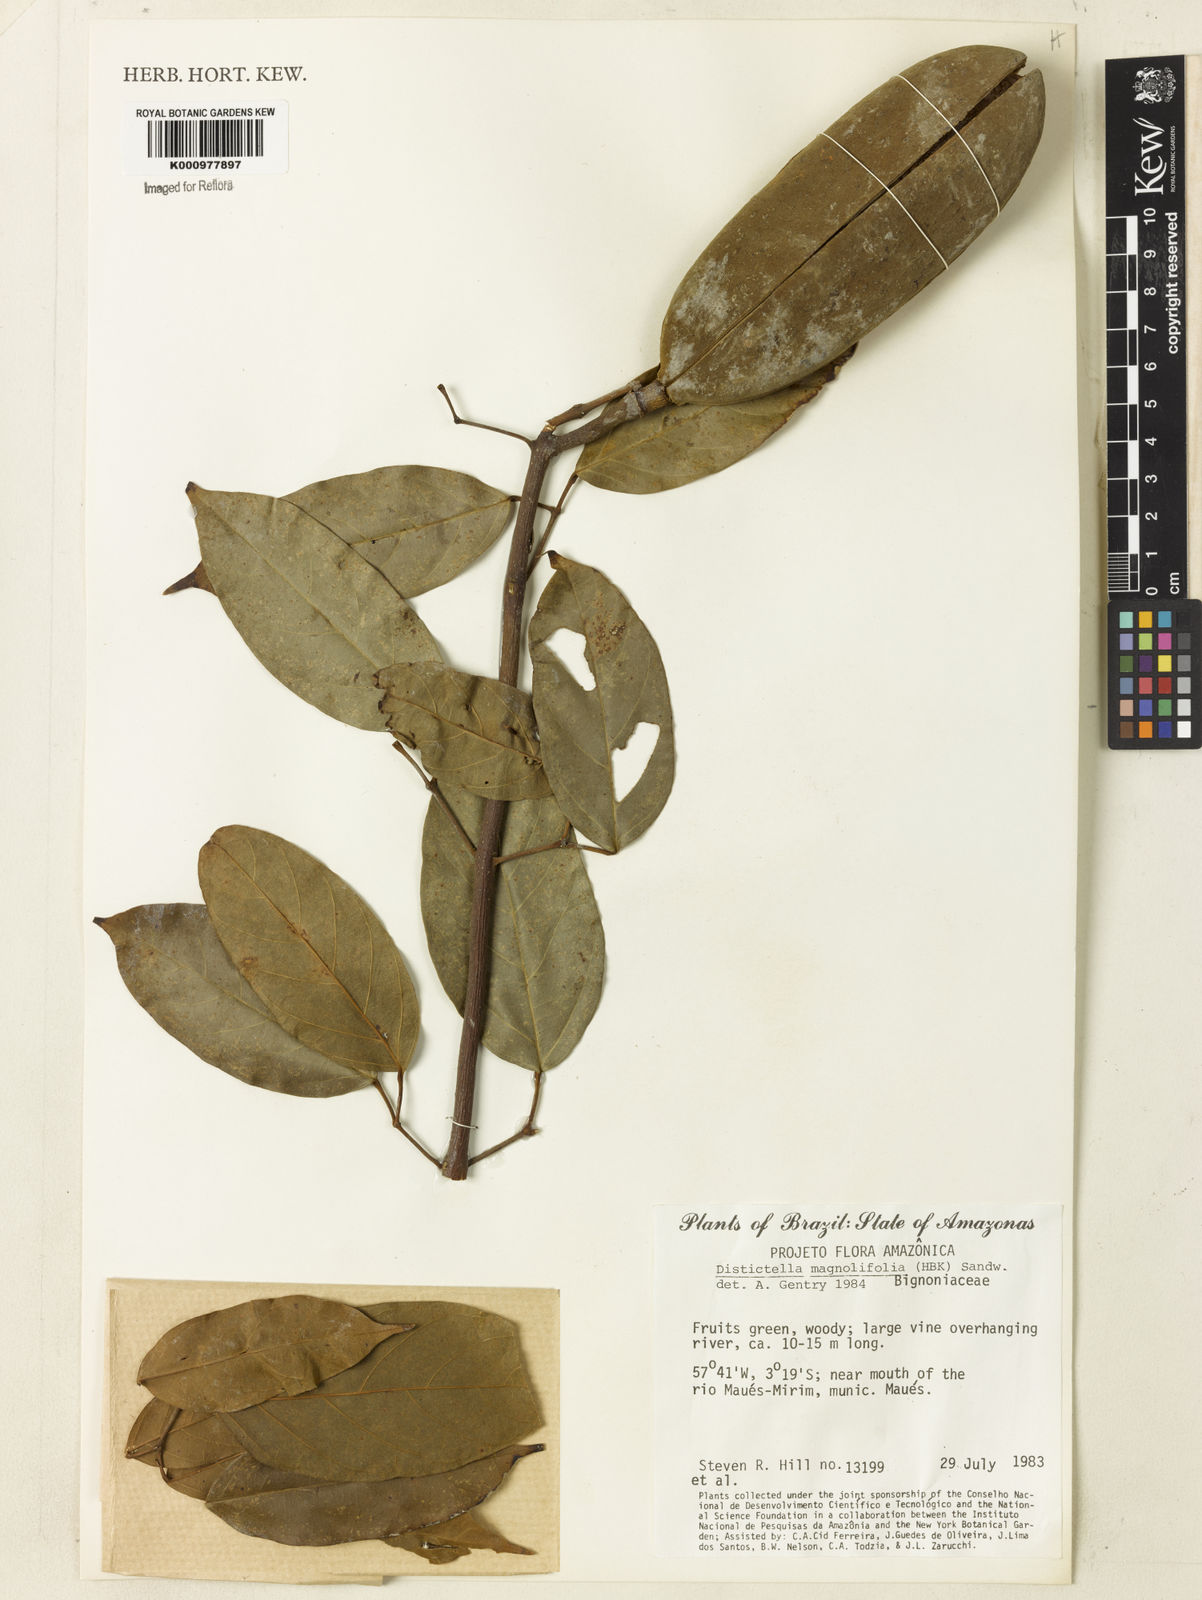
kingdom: Plantae
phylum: Tracheophyta
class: Magnoliopsida
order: Lamiales
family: Bignoniaceae
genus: Amphilophium
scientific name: Amphilophium
